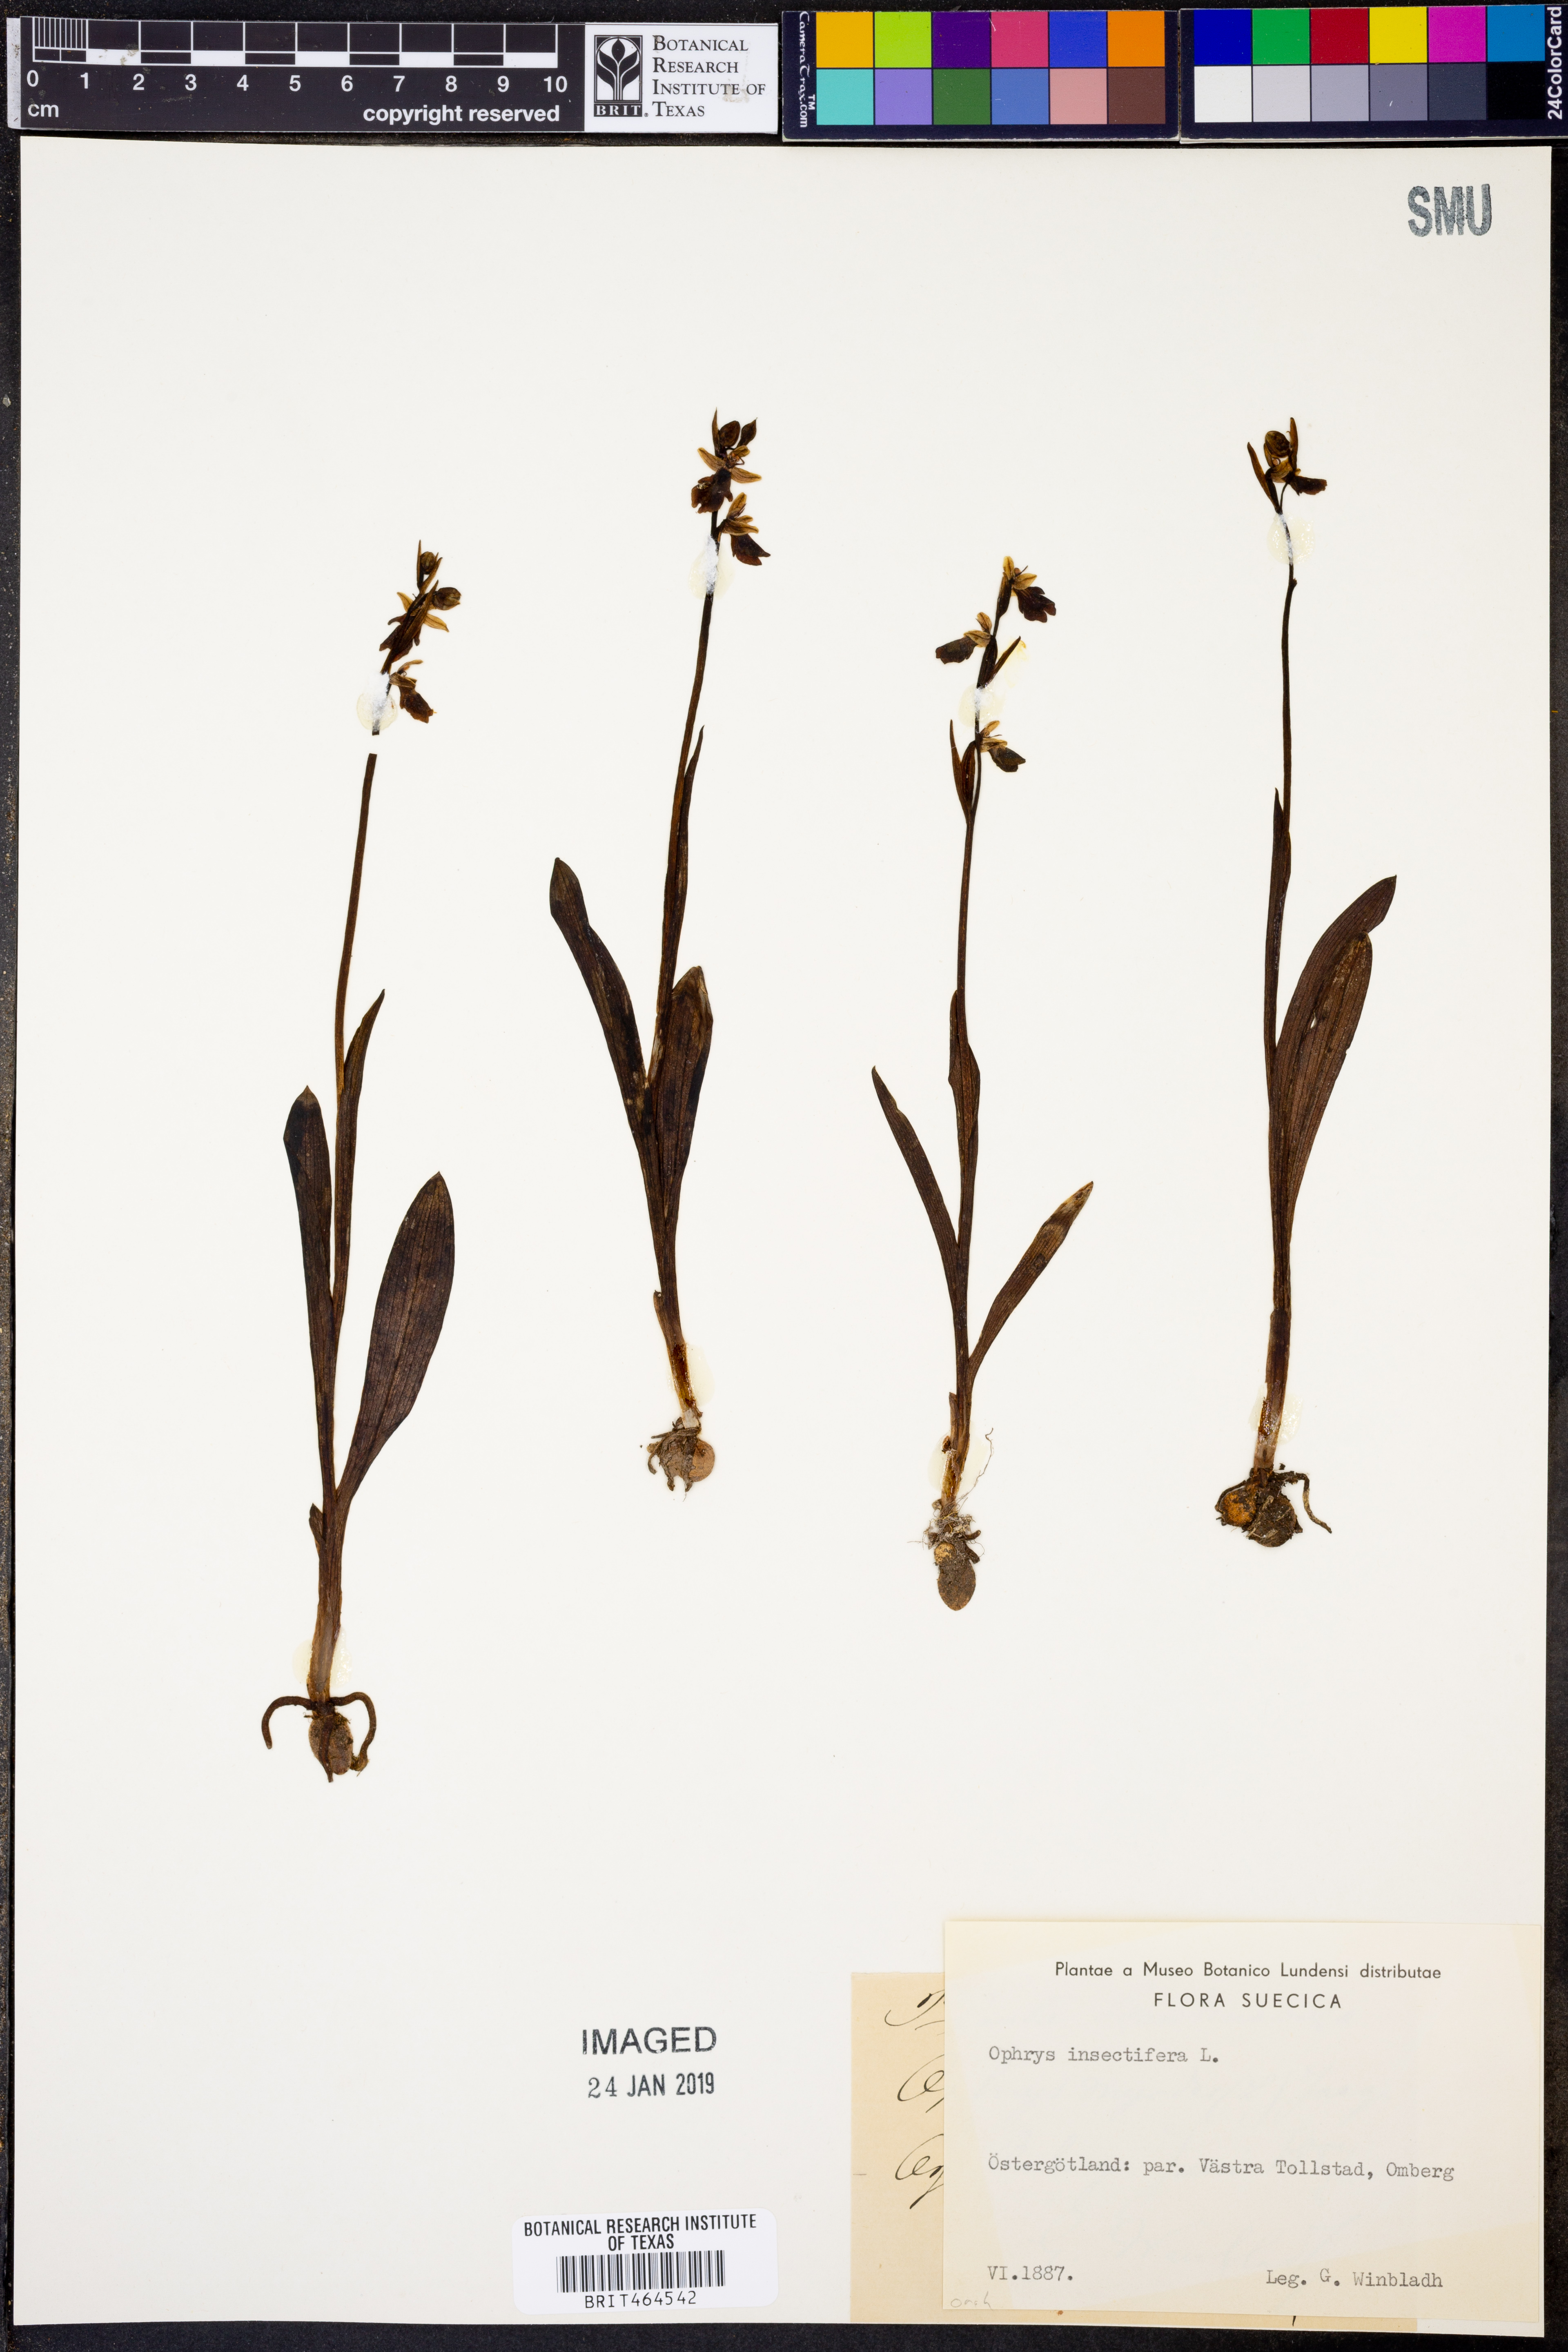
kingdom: Plantae
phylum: Tracheophyta
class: Liliopsida
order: Asparagales
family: Orchidaceae
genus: Ophrys
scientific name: Ophrys insectifera
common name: Fly orchid
